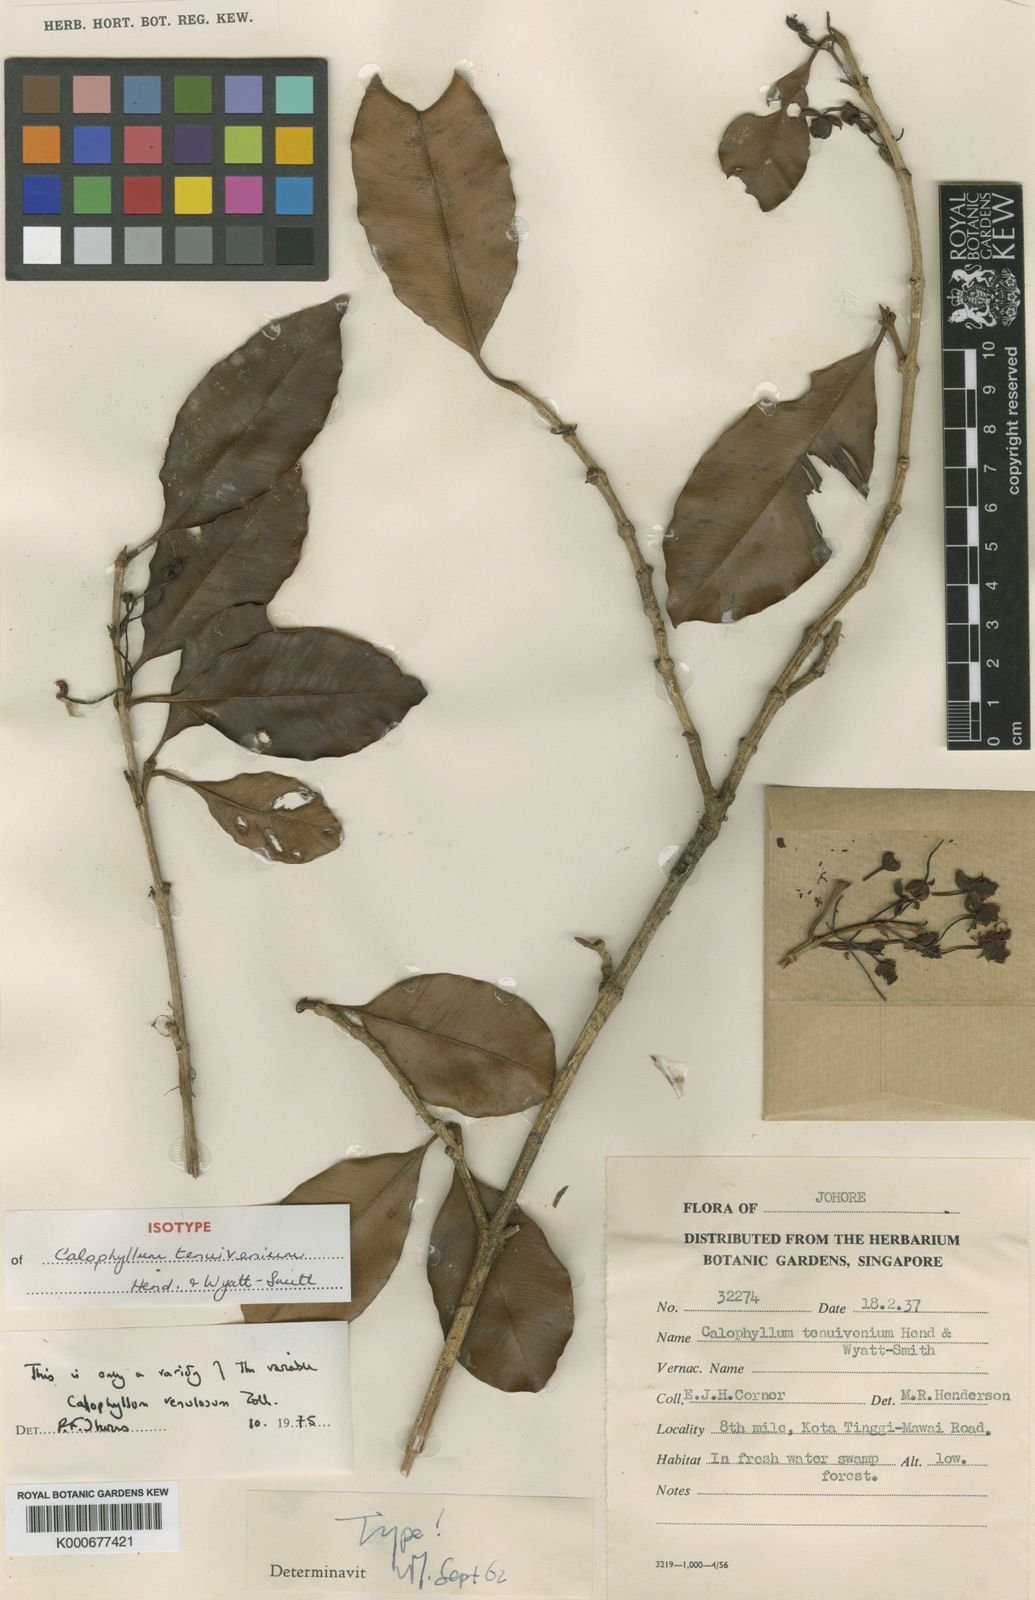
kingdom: Plantae
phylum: Tracheophyta
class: Magnoliopsida
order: Malpighiales
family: Calophyllaceae
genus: Calophyllum
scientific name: Calophyllum venulosum
